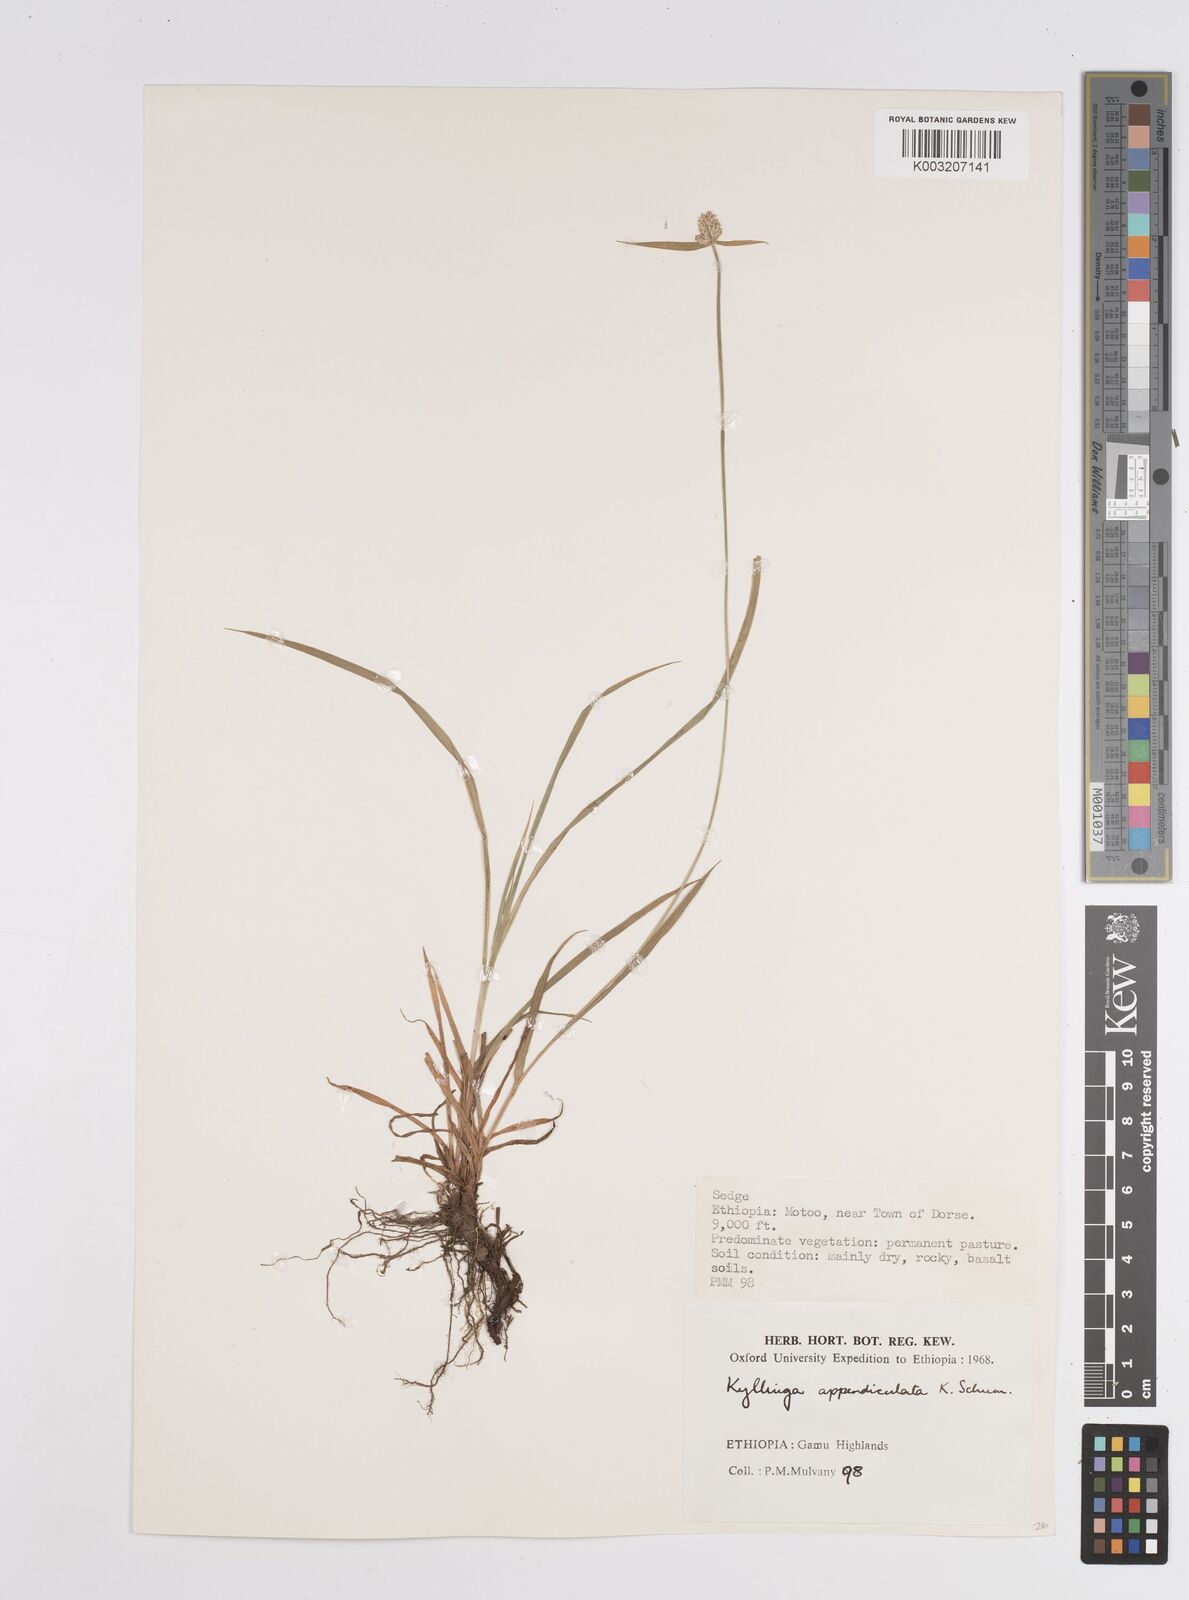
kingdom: Plantae
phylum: Tracheophyta
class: Liliopsida
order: Poales
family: Cyperaceae
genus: Cyperus
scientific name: Cyperus
